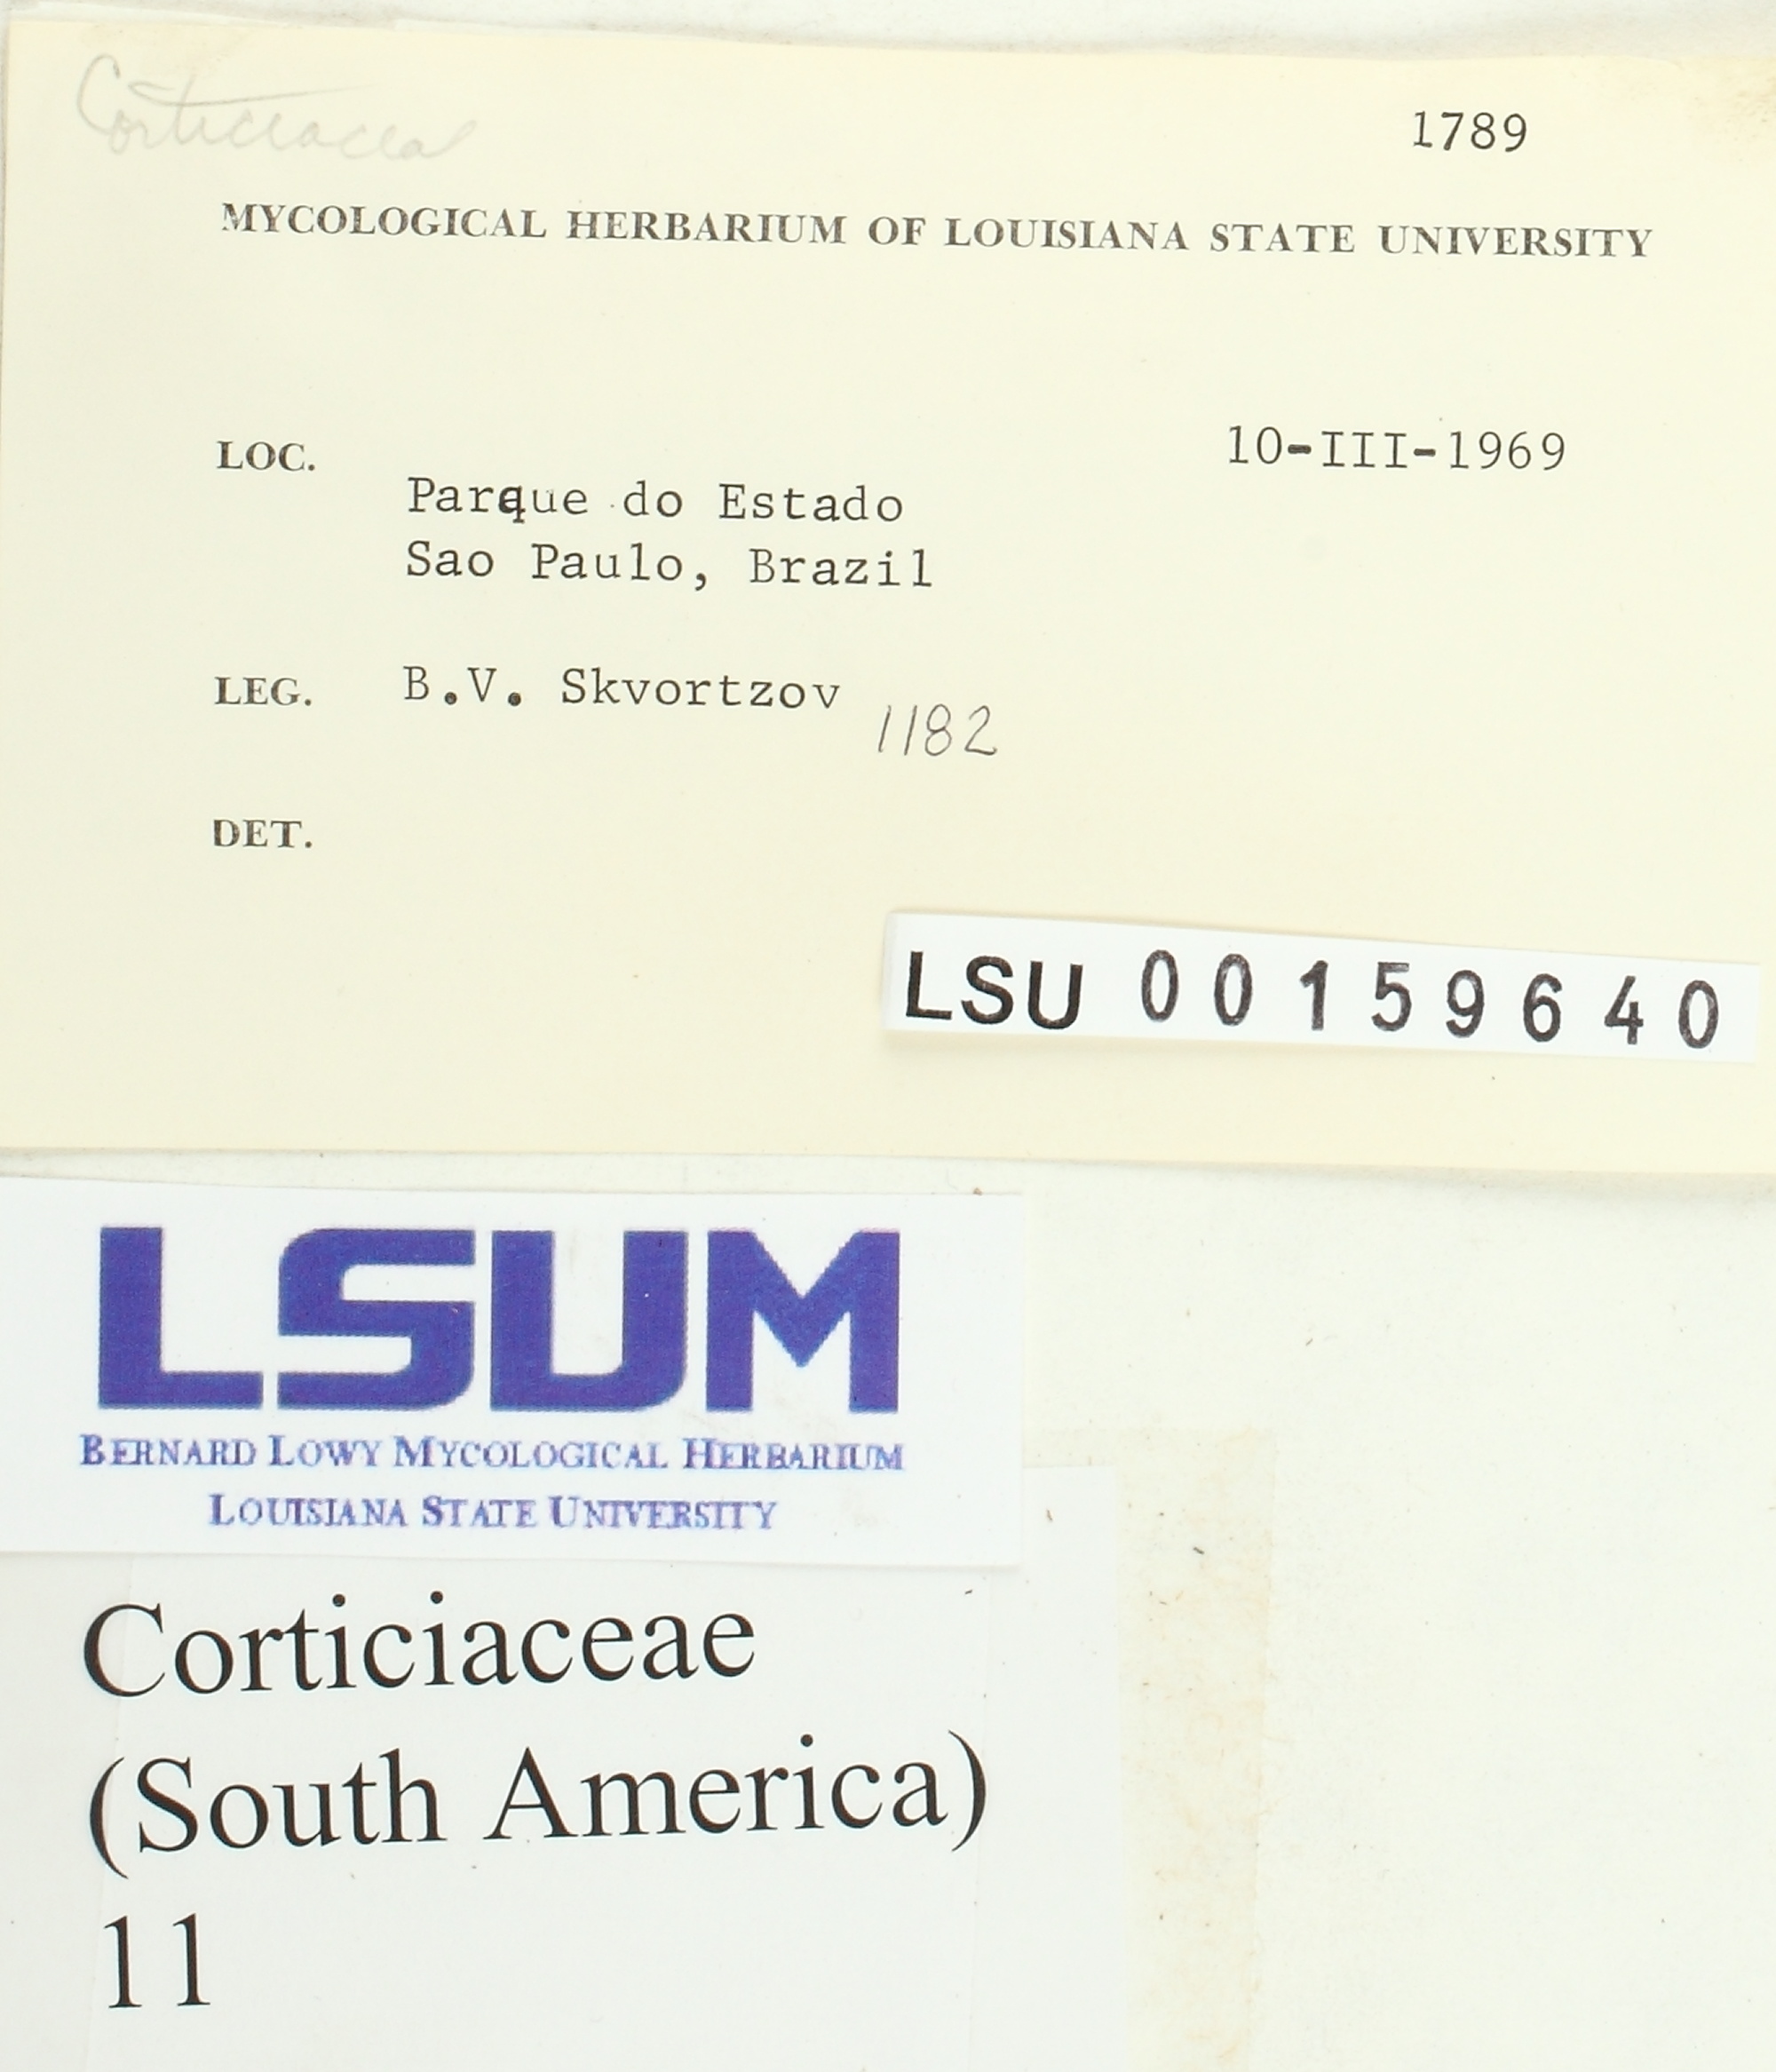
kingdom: Fungi
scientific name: Fungi
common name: Fungi
